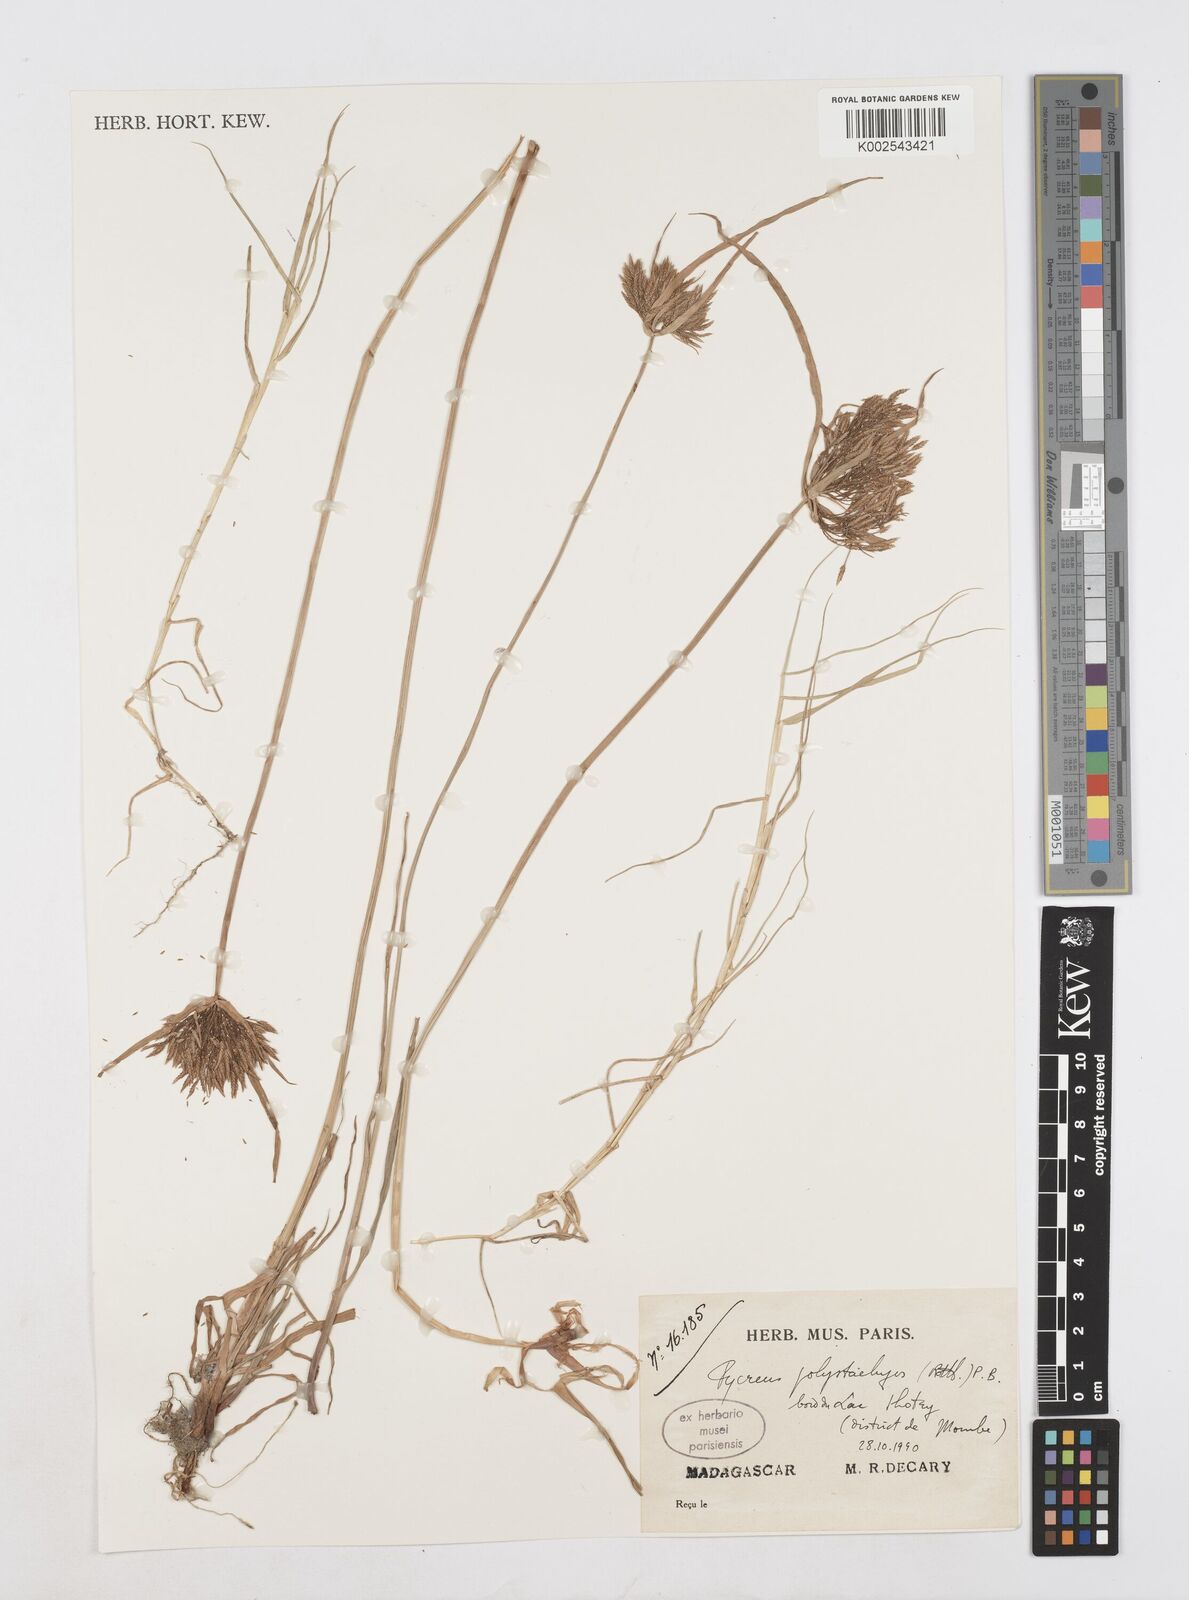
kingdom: Plantae
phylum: Tracheophyta
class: Liliopsida
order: Poales
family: Cyperaceae
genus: Cyperus
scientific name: Cyperus polystachyos
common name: Bunchy flat sedge
